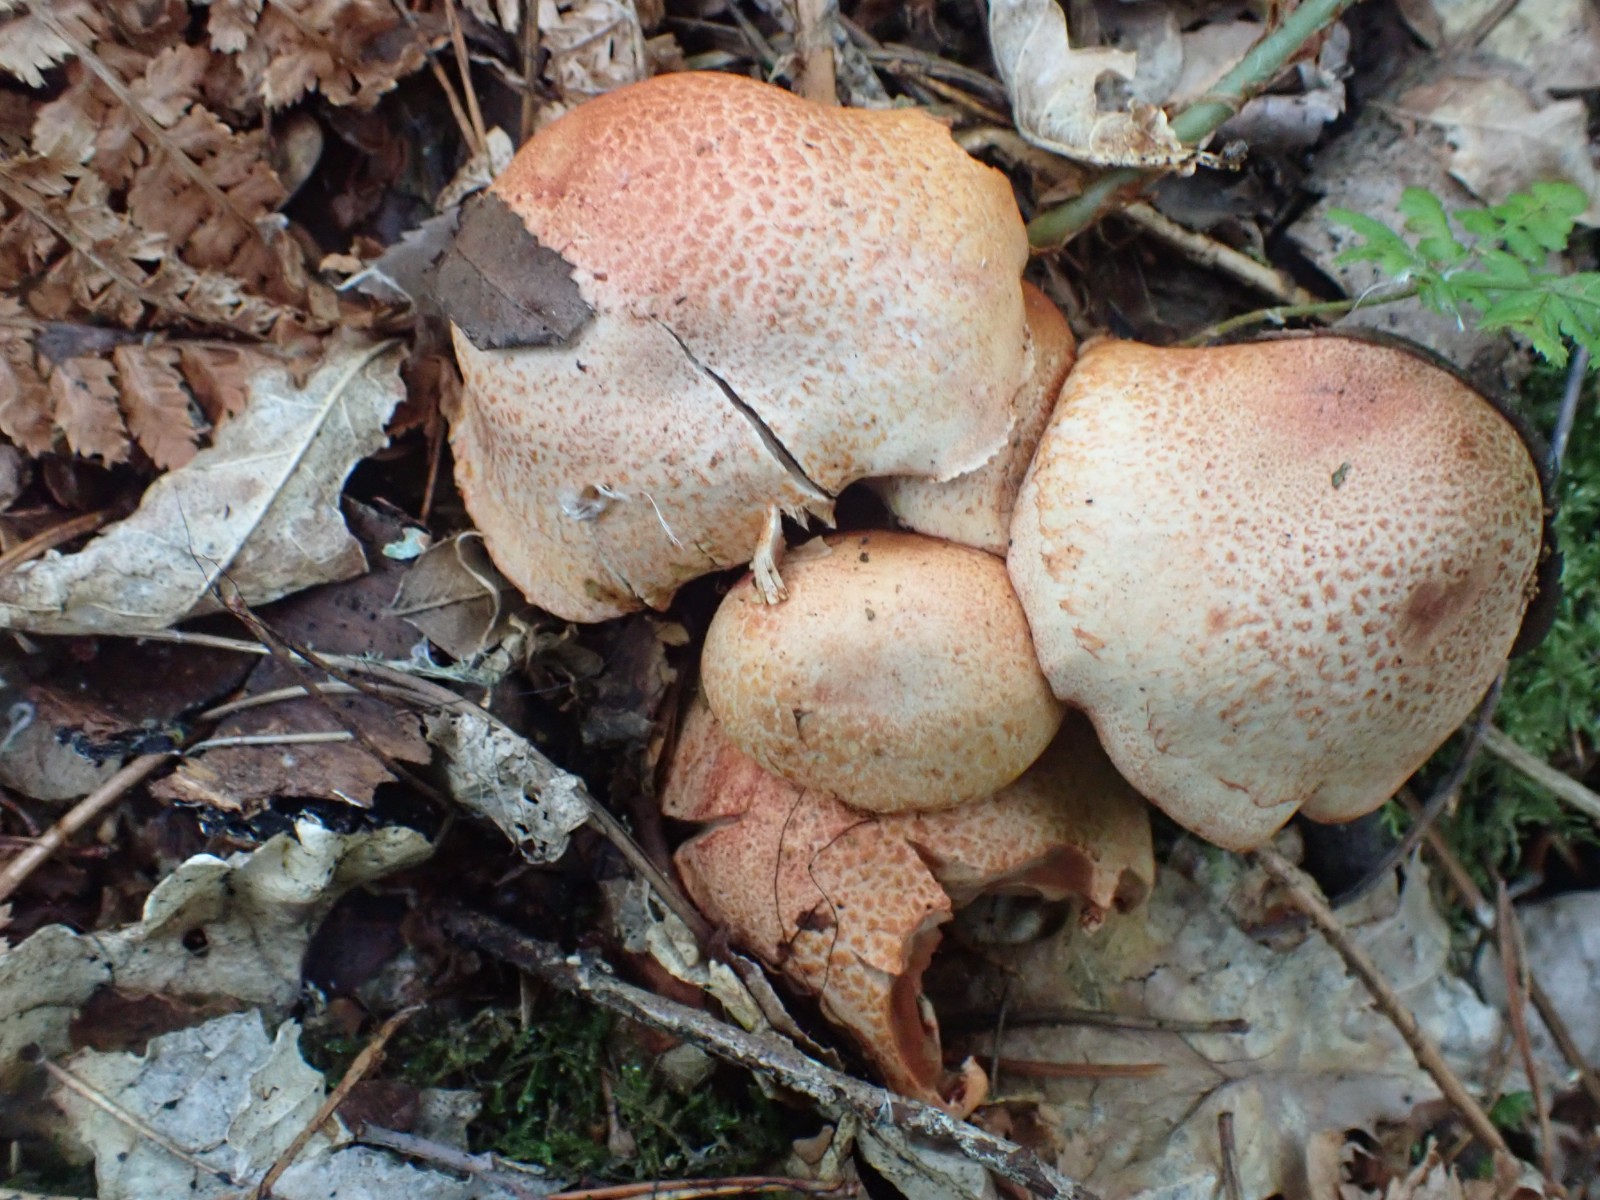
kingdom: Fungi
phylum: Basidiomycota
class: Agaricomycetes
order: Agaricales
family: Cortinariaceae
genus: Cortinarius
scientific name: Cortinarius bolaris
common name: cinnoberskællet slørhat
